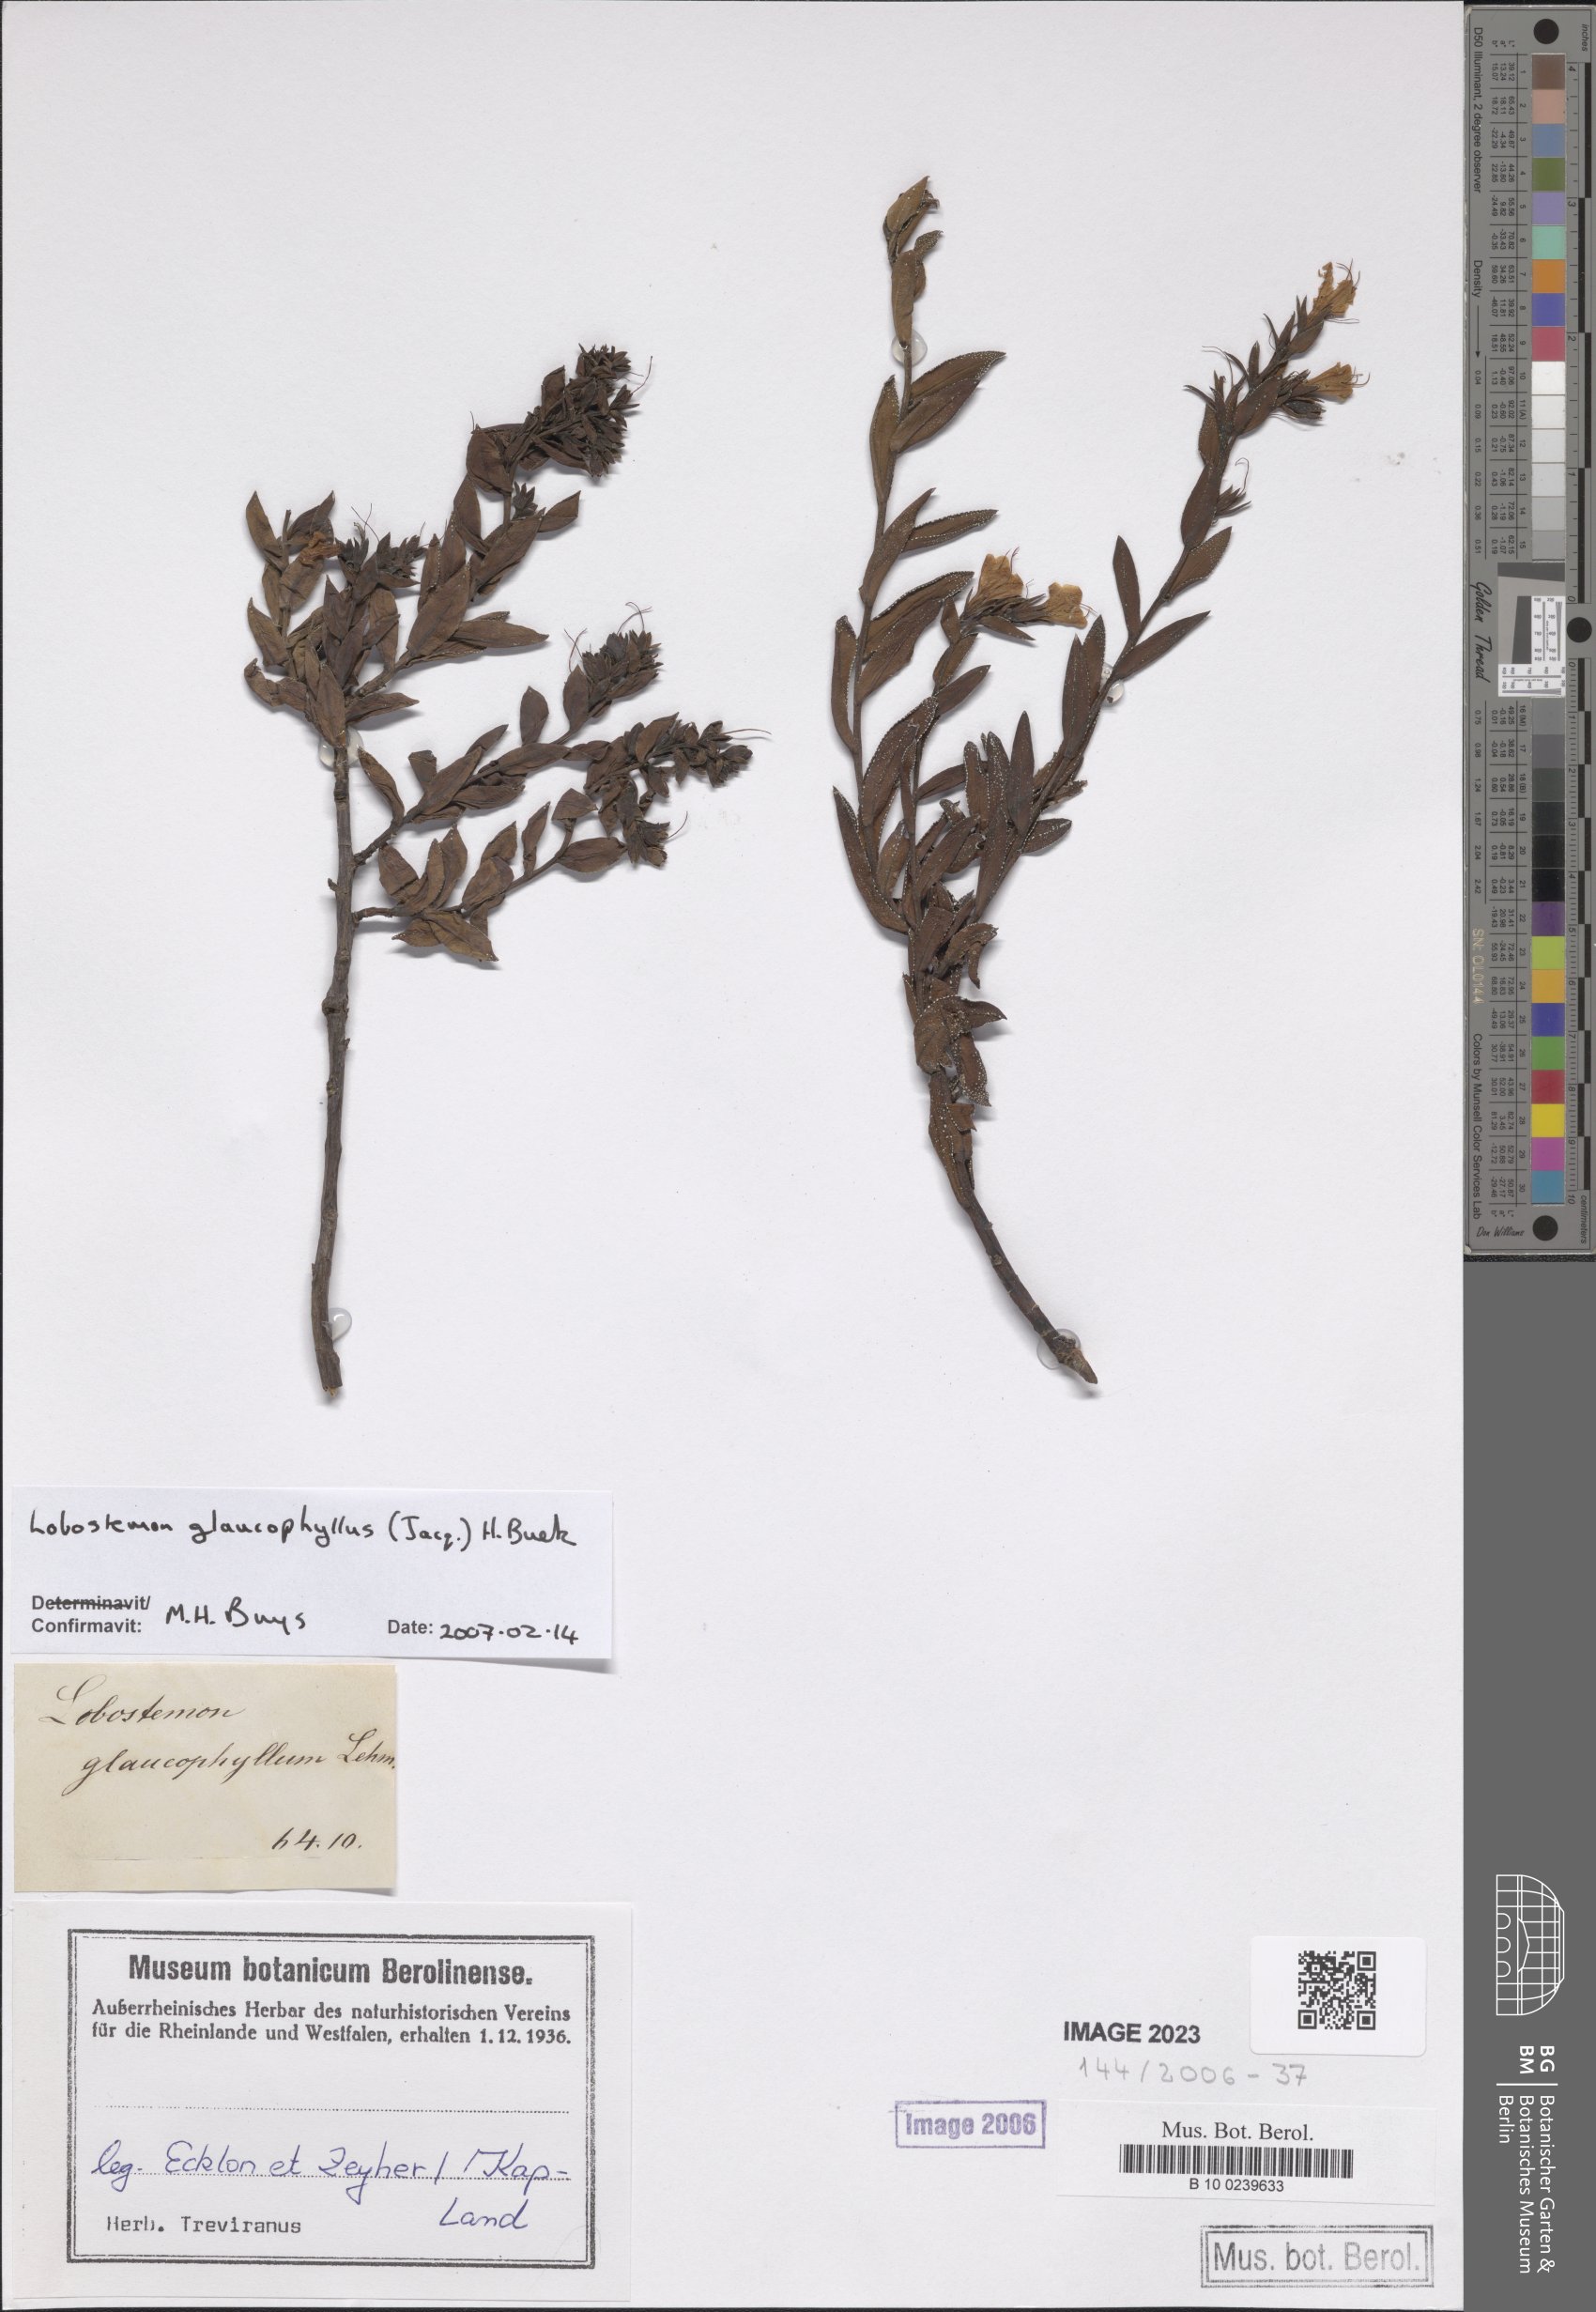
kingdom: Plantae
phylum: Tracheophyta
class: Magnoliopsida
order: Boraginales
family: Boraginaceae
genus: Lobostemon
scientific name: Lobostemon glaucophyllus
